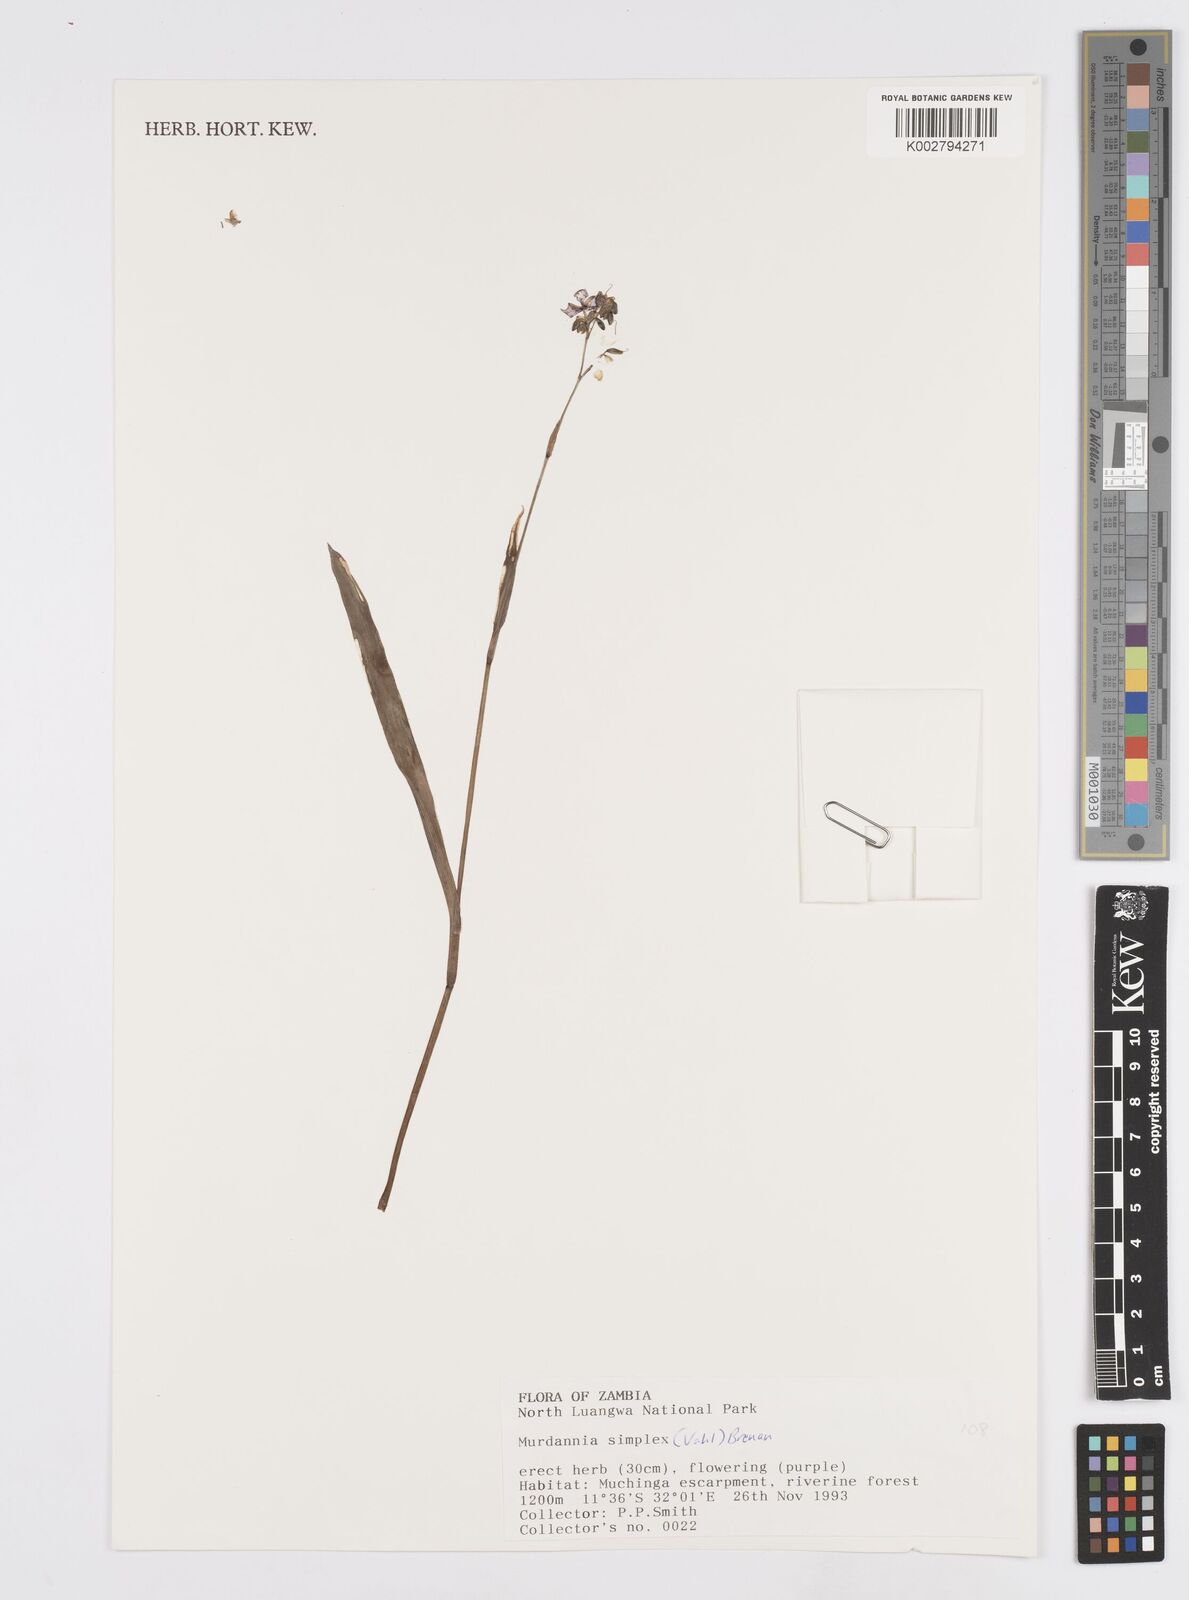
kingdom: Plantae
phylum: Tracheophyta
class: Liliopsida
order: Commelinales
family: Commelinaceae
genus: Murdannia
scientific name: Murdannia simplex
